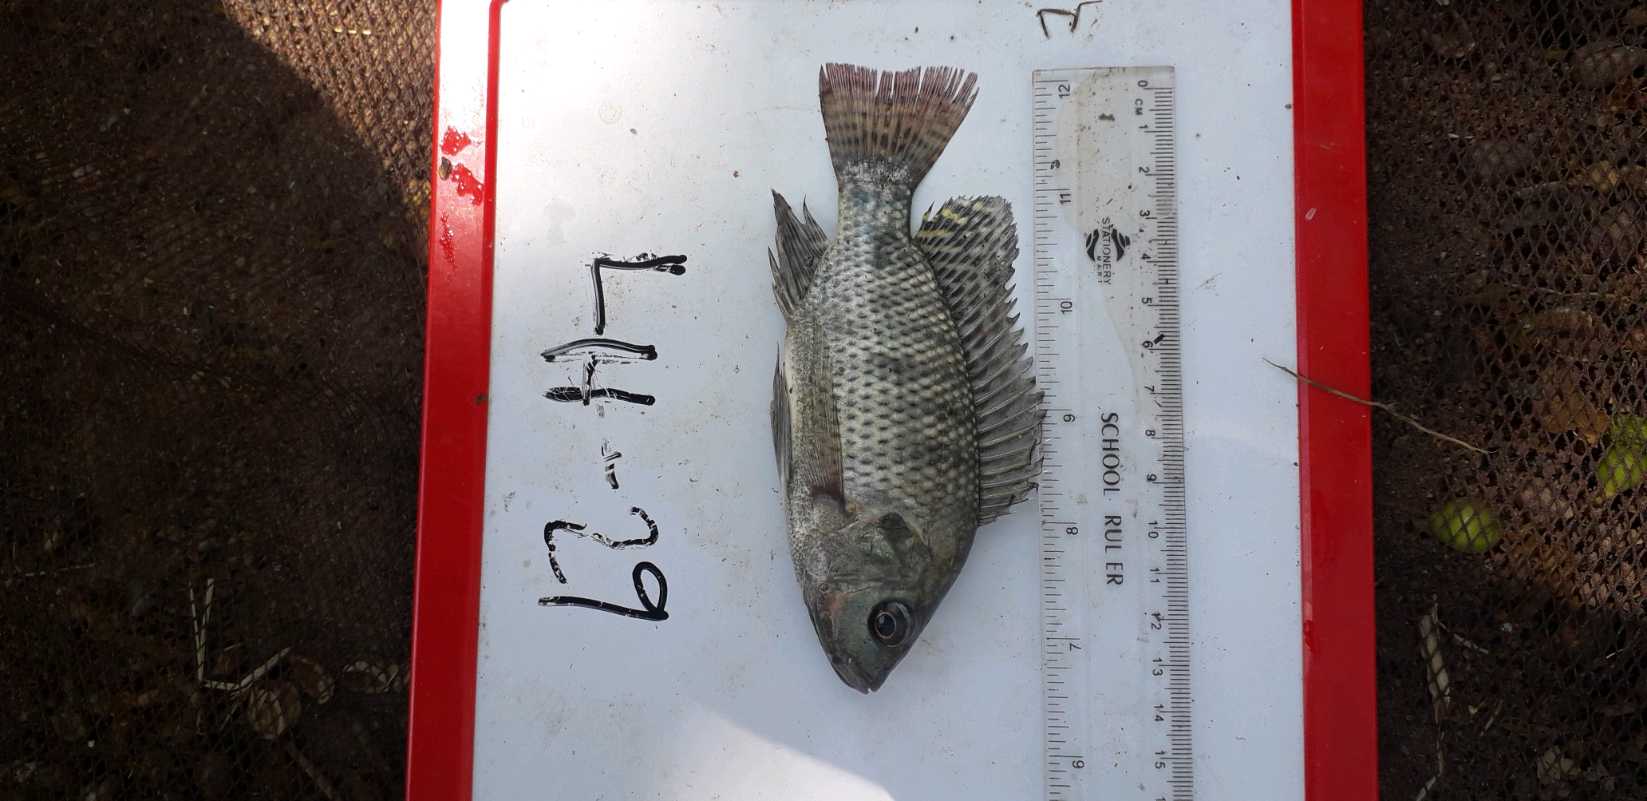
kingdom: Animalia
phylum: Chordata
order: Perciformes
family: Cichlidae
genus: Oreochromis
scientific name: Oreochromis niloticus
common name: Nile tilapia
